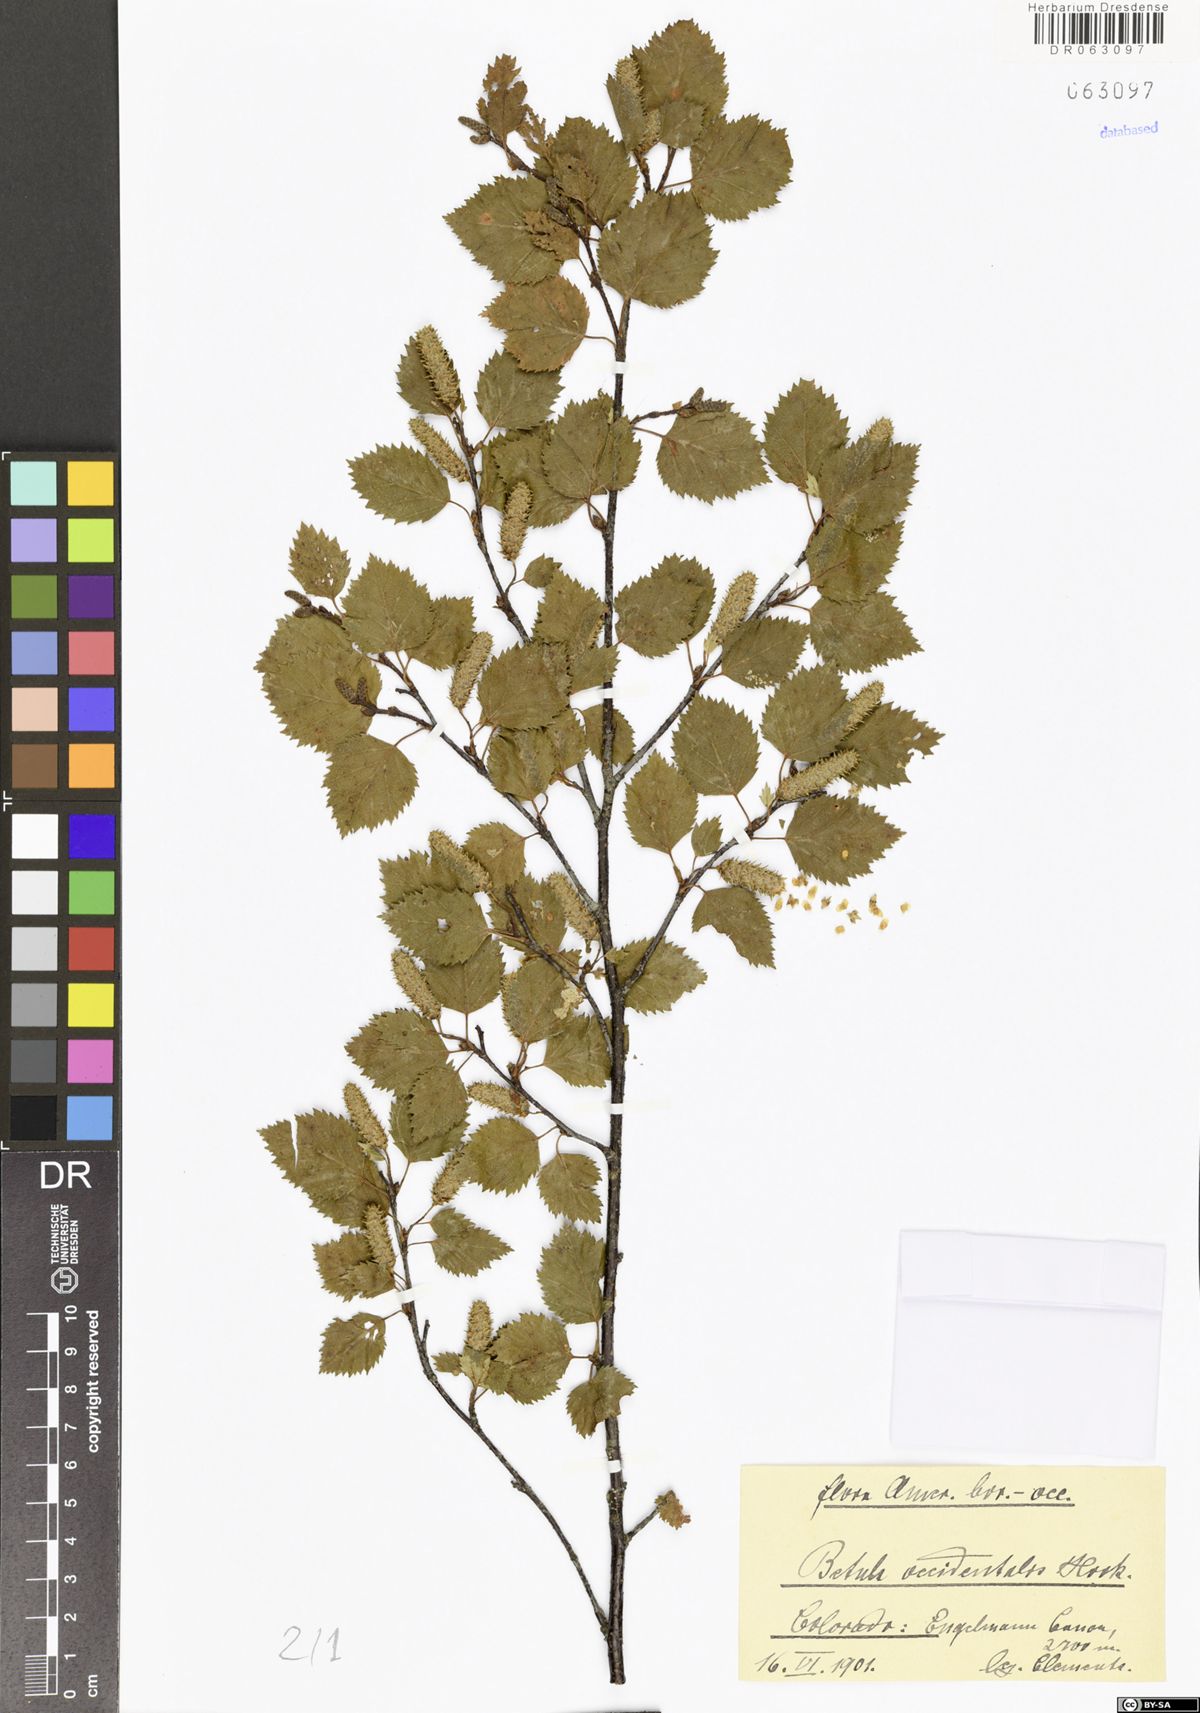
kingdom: Plantae
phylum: Tracheophyta
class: Magnoliopsida
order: Fagales
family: Betulaceae
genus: Betula
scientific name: Betula occidentalis
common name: River birch
